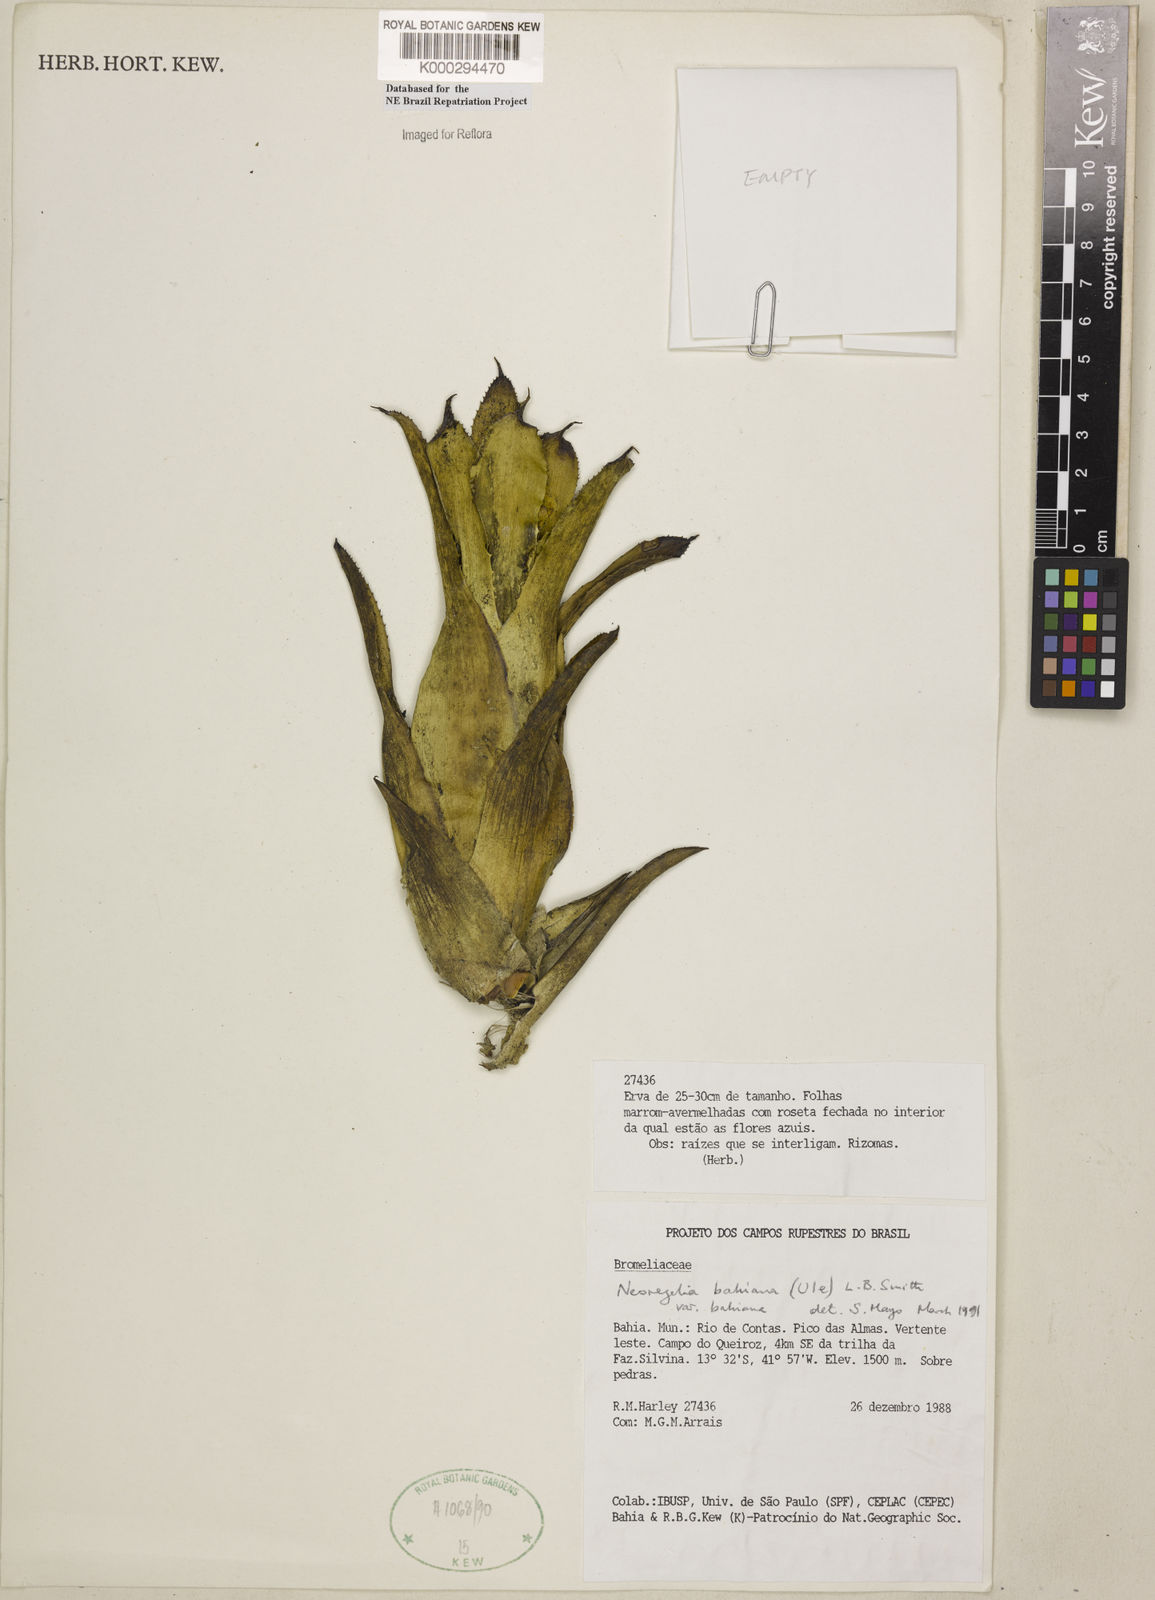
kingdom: Plantae
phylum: Tracheophyta
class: Liliopsida
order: Poales
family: Bromeliaceae
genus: Neoregelia
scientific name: Neoregelia bahiana
